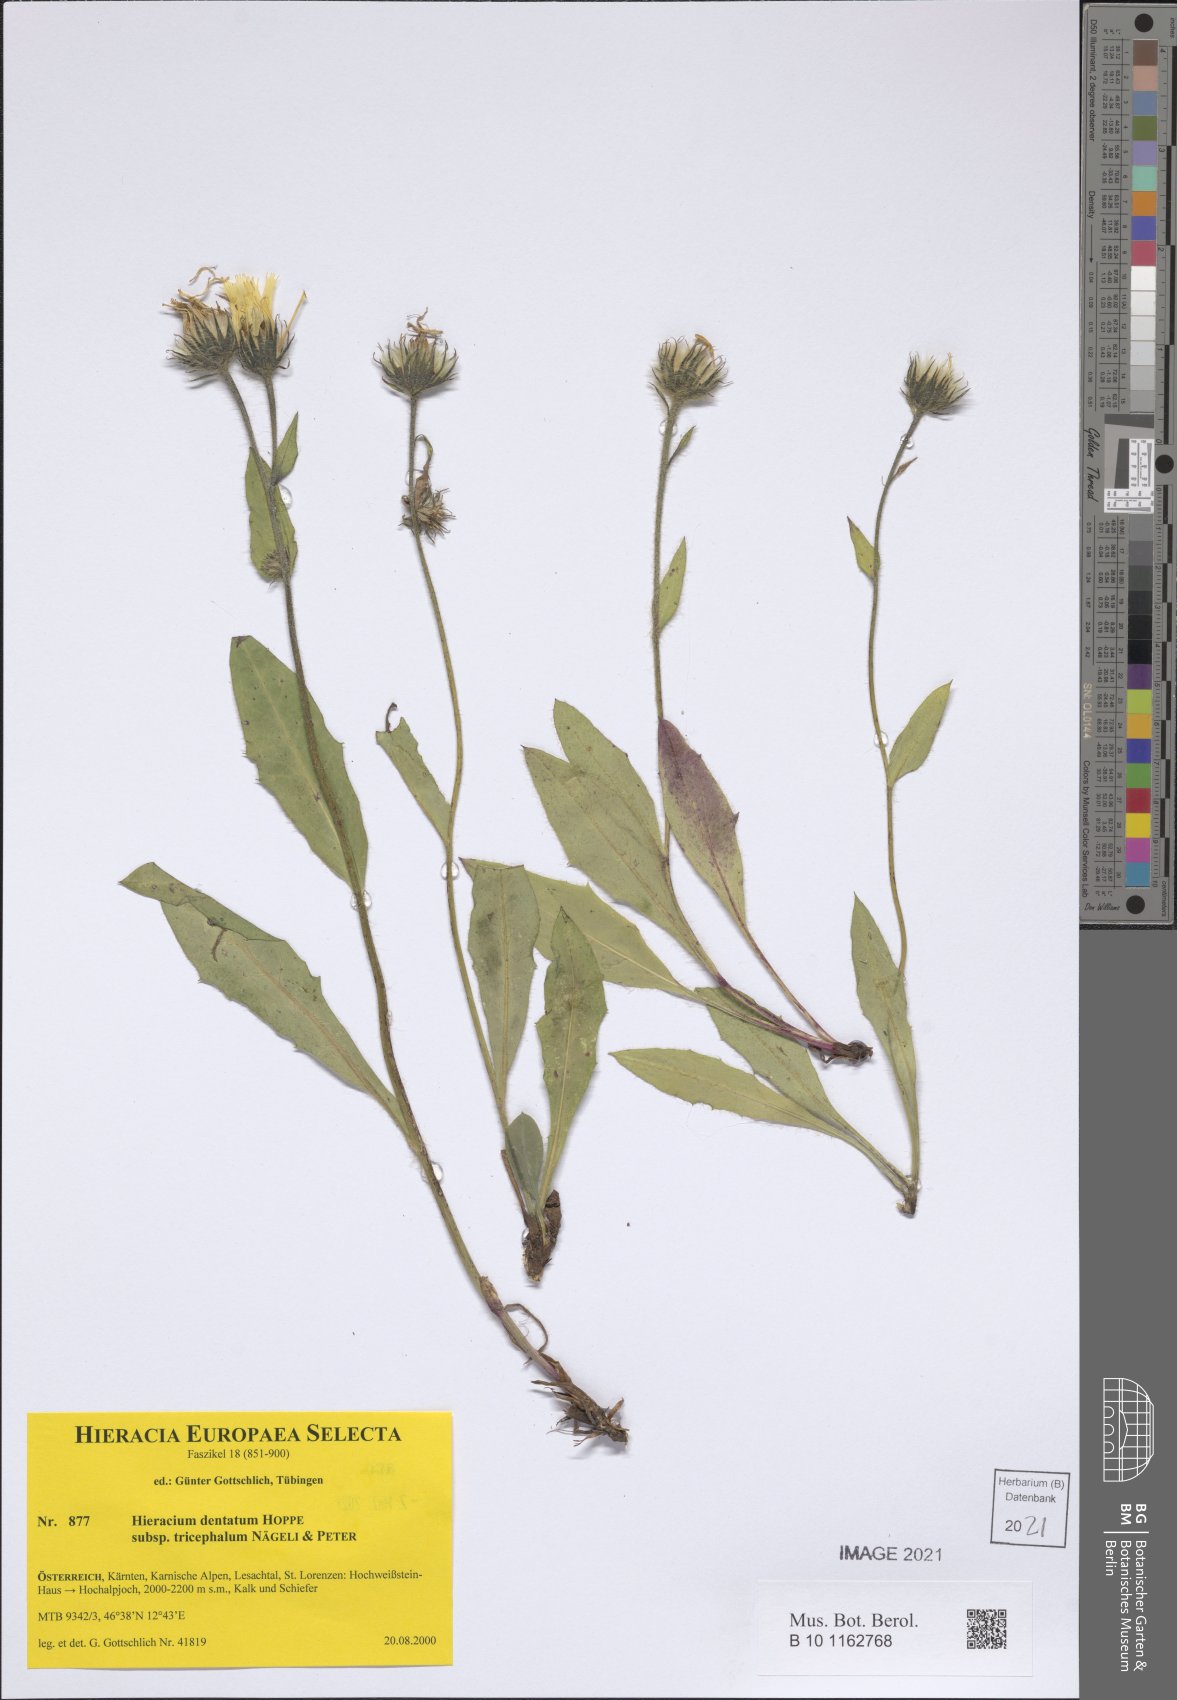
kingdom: Plantae
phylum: Tracheophyta
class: Magnoliopsida
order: Asterales
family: Asteraceae
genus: Hieracium
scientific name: Hieracium dentatum
